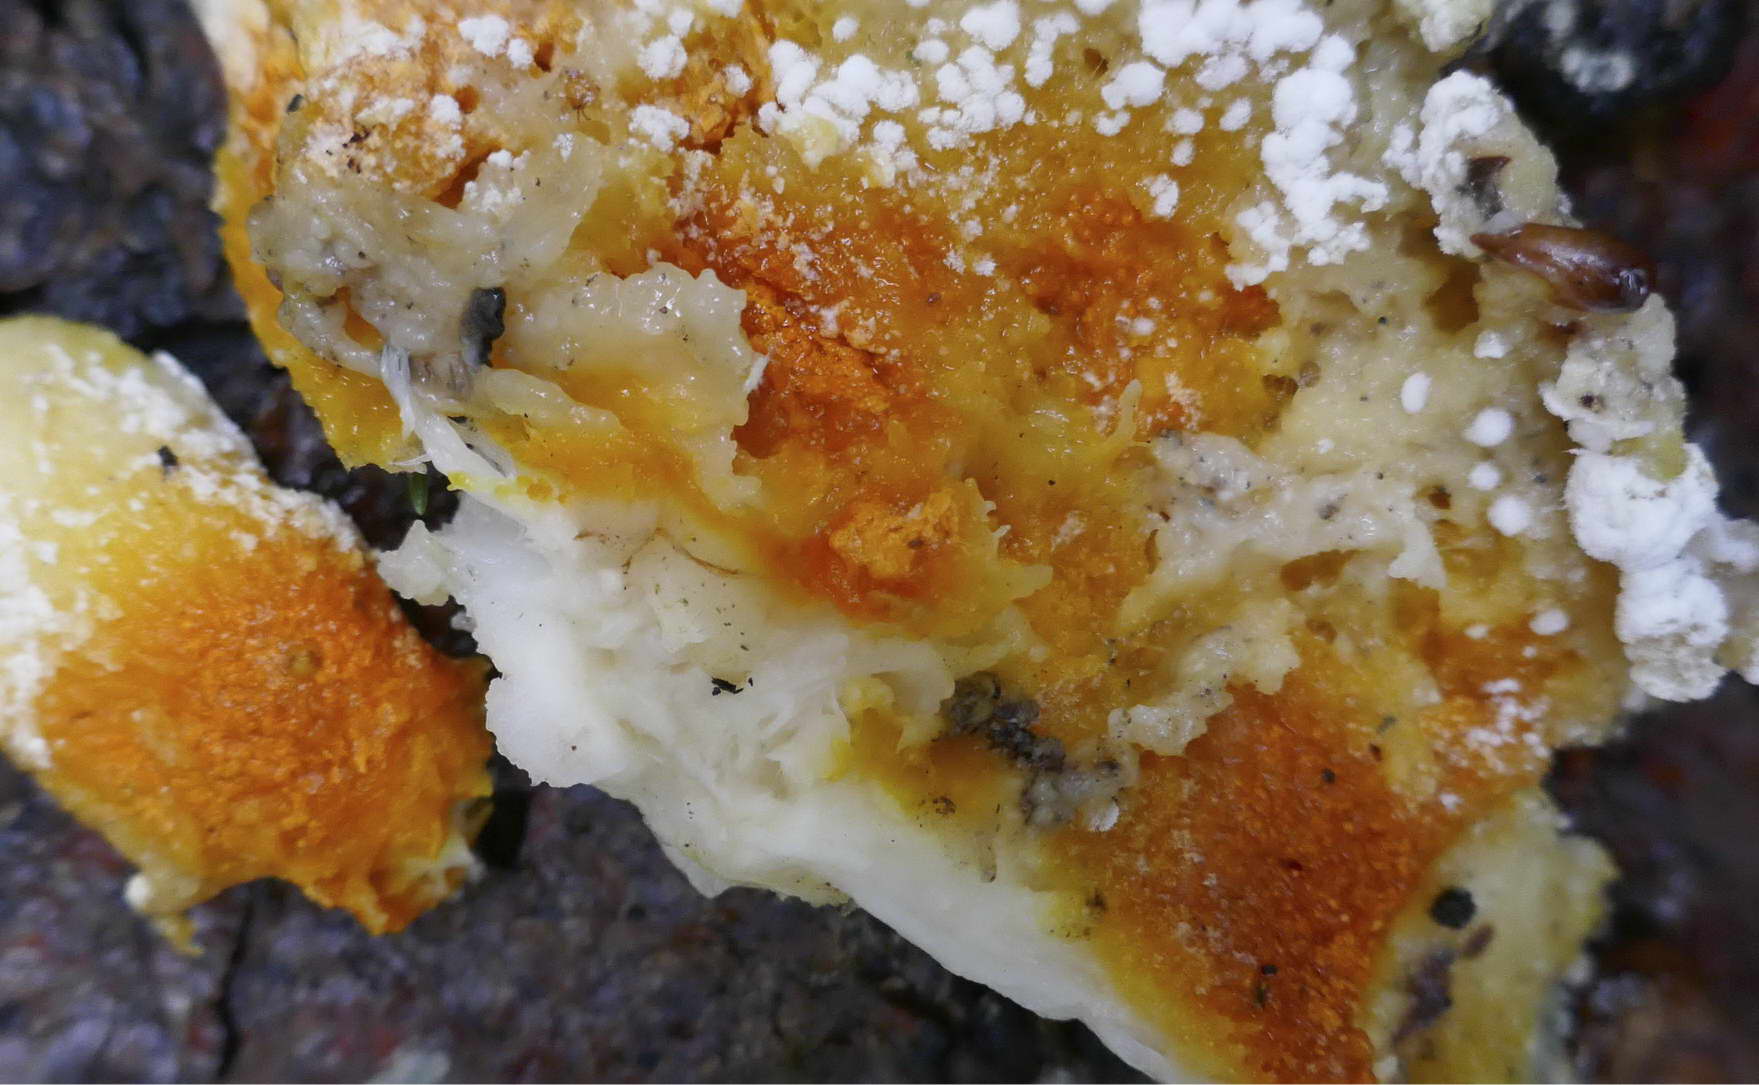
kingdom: Fungi
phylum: Ascomycota
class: Sordariomycetes
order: Hypocreales
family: Hypocreaceae
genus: Hypomyces
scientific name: Hypomyces aurantius
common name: almindelig snylteskorpe
